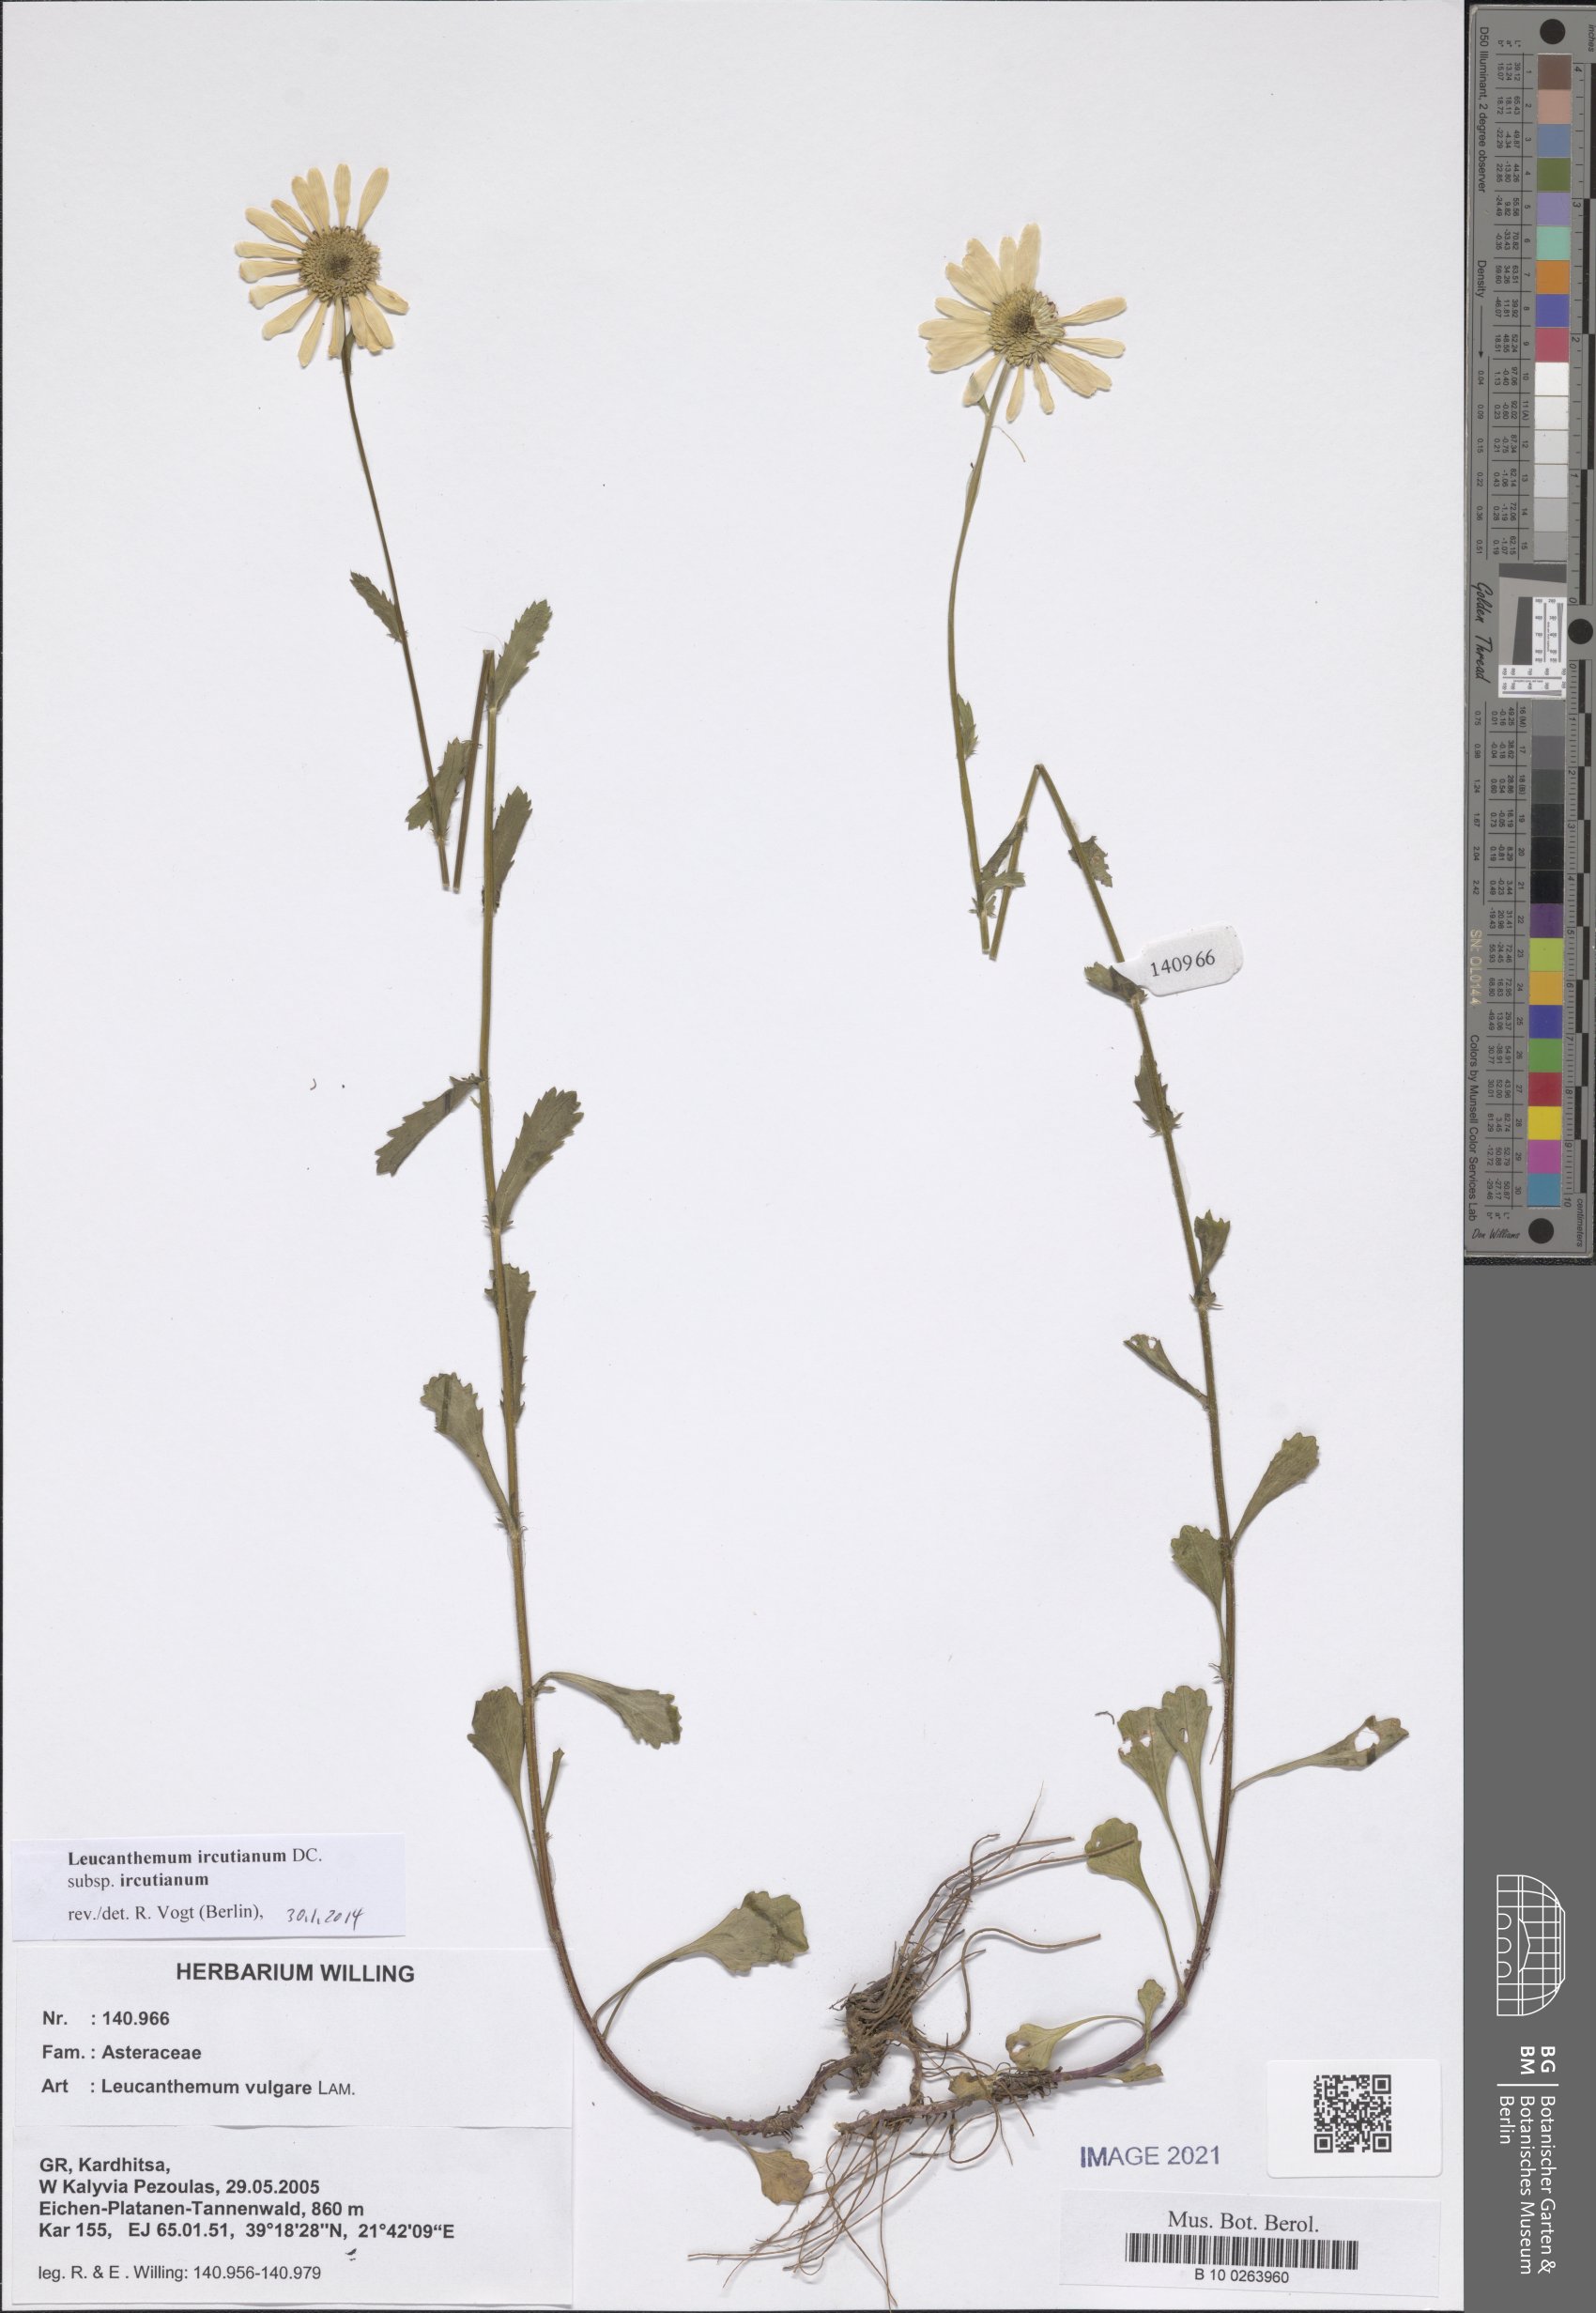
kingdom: Plantae
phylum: Tracheophyta
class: Magnoliopsida
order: Asterales
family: Asteraceae
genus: Leucanthemum
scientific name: Leucanthemum ircutianum
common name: Daisy
